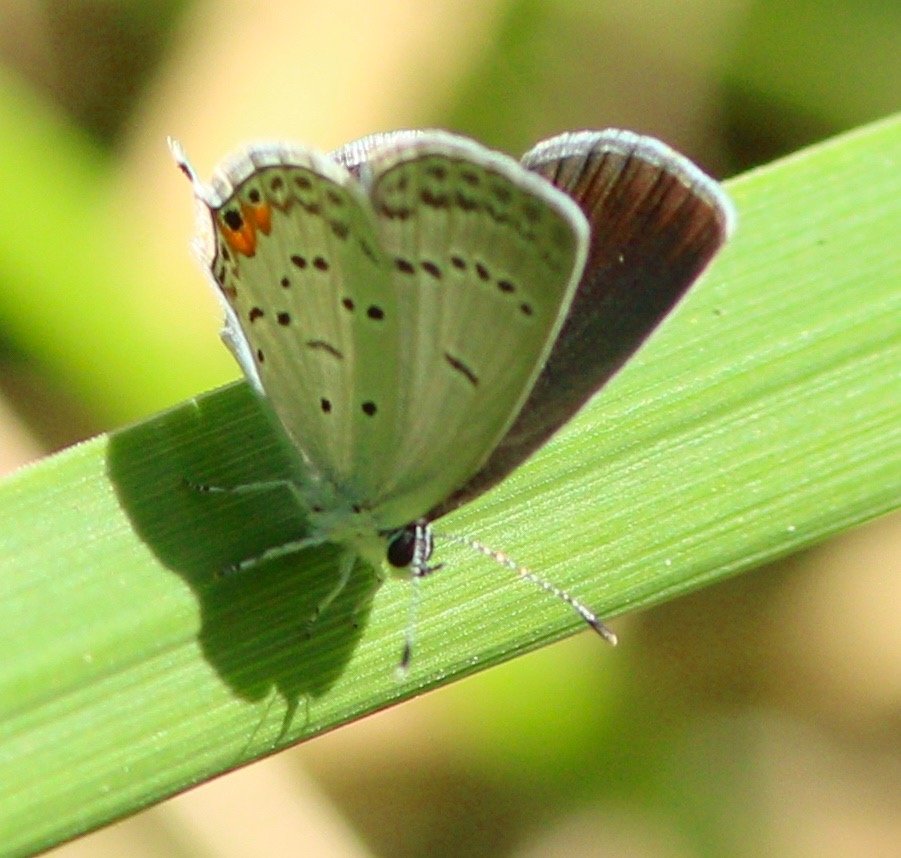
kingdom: Animalia
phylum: Arthropoda
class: Insecta
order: Lepidoptera
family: Lycaenidae
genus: Elkalyce
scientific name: Elkalyce comyntas
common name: Eastern Tailed-Blue
